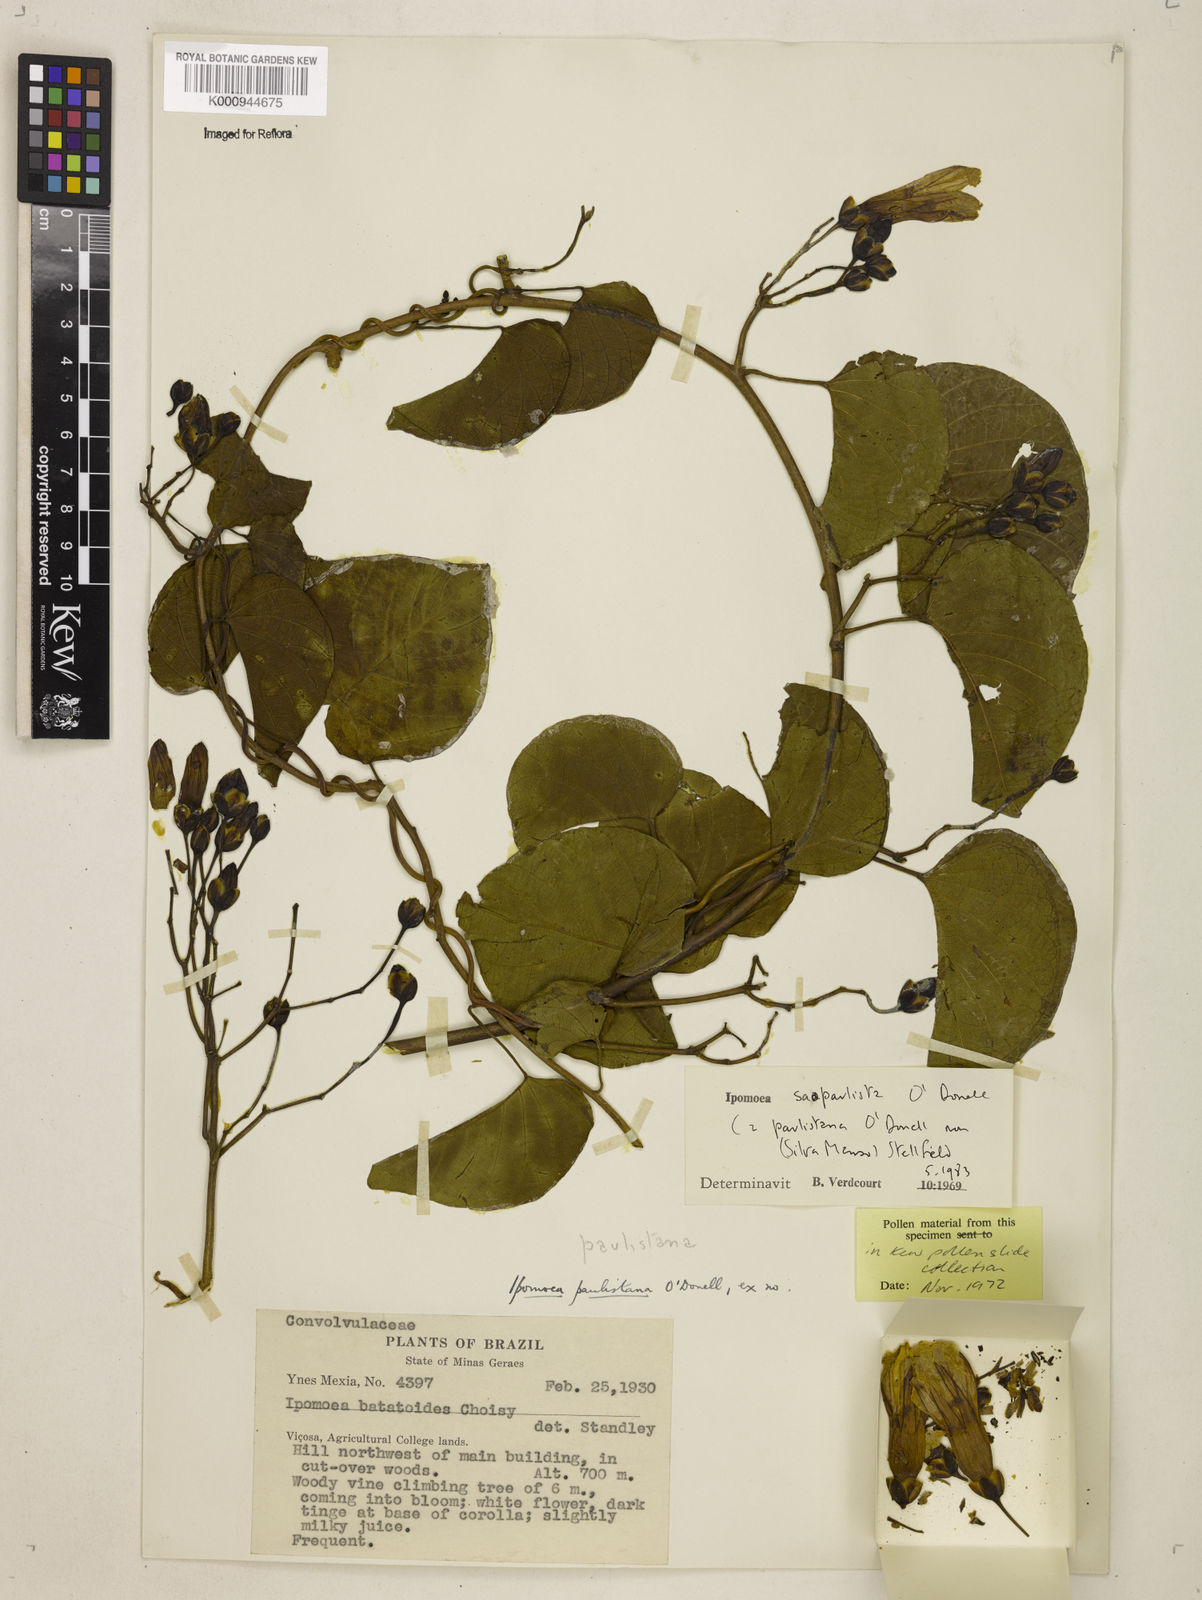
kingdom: Plantae
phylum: Tracheophyta
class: Magnoliopsida
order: Solanales
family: Convolvulaceae
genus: Ipomoea
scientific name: Ipomoea
